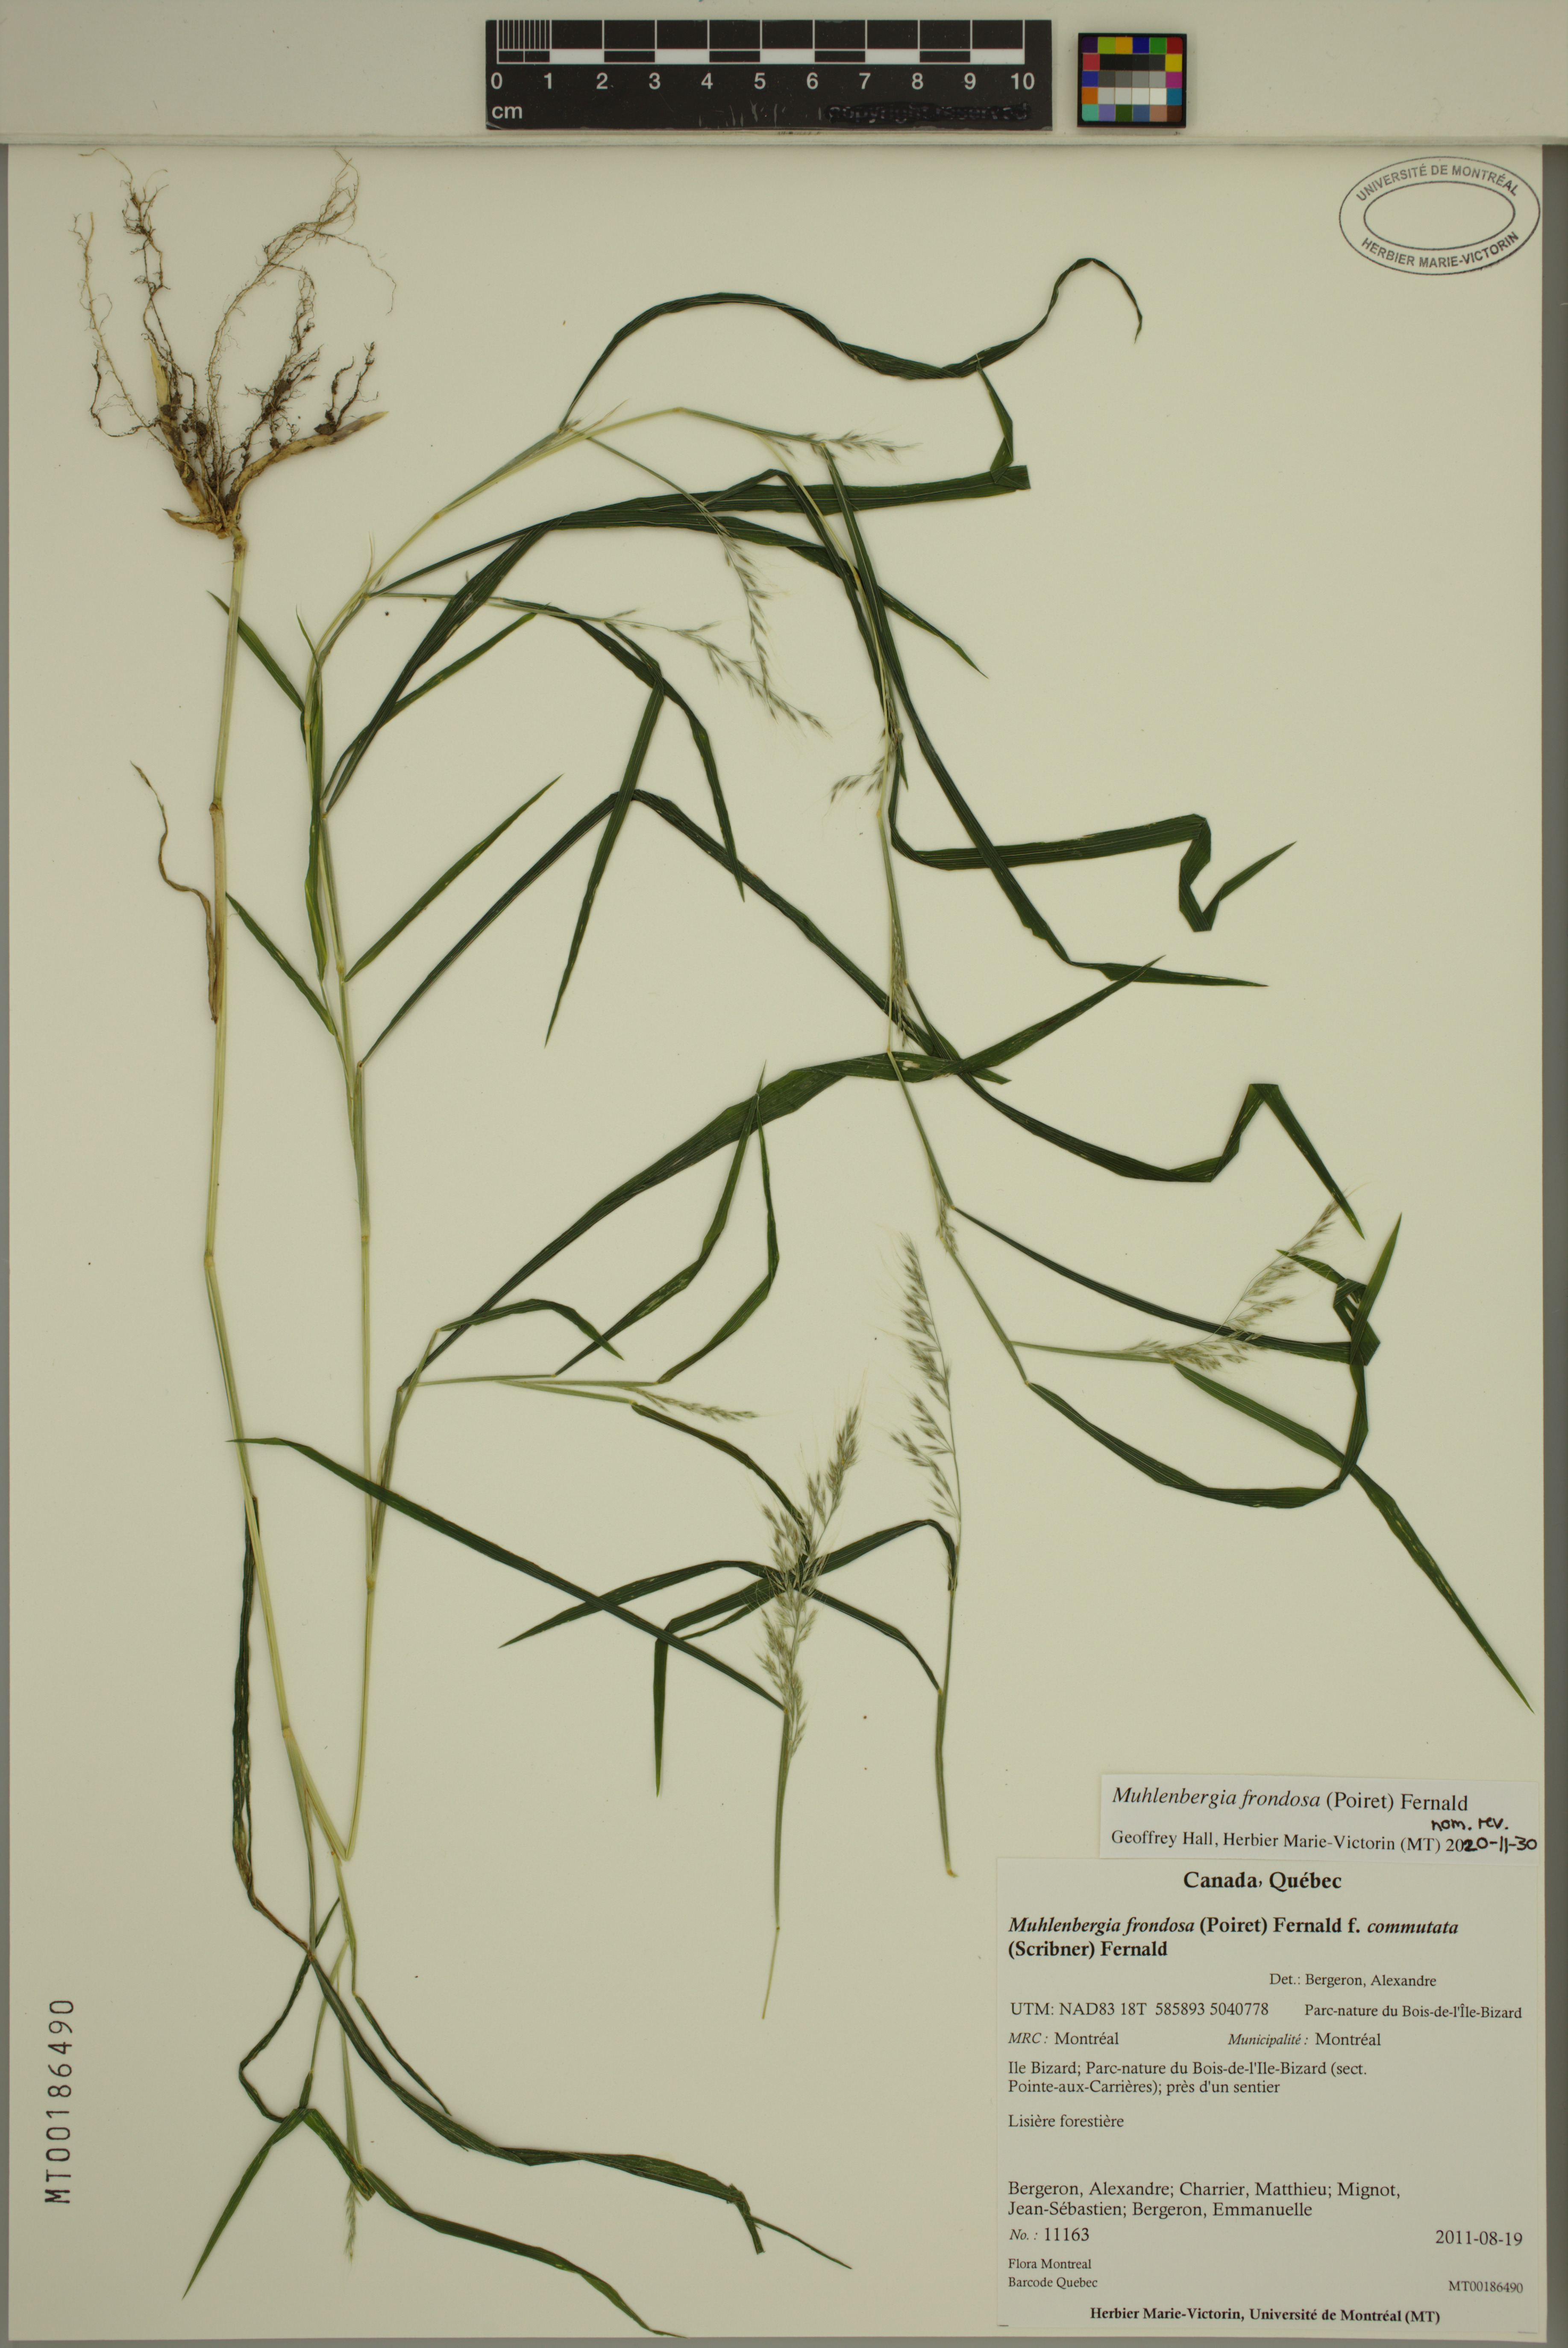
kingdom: Plantae
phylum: Tracheophyta
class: Liliopsida
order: Poales
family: Poaceae
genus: Muhlenbergia
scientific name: Muhlenbergia frondosa
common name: Common satingrass
